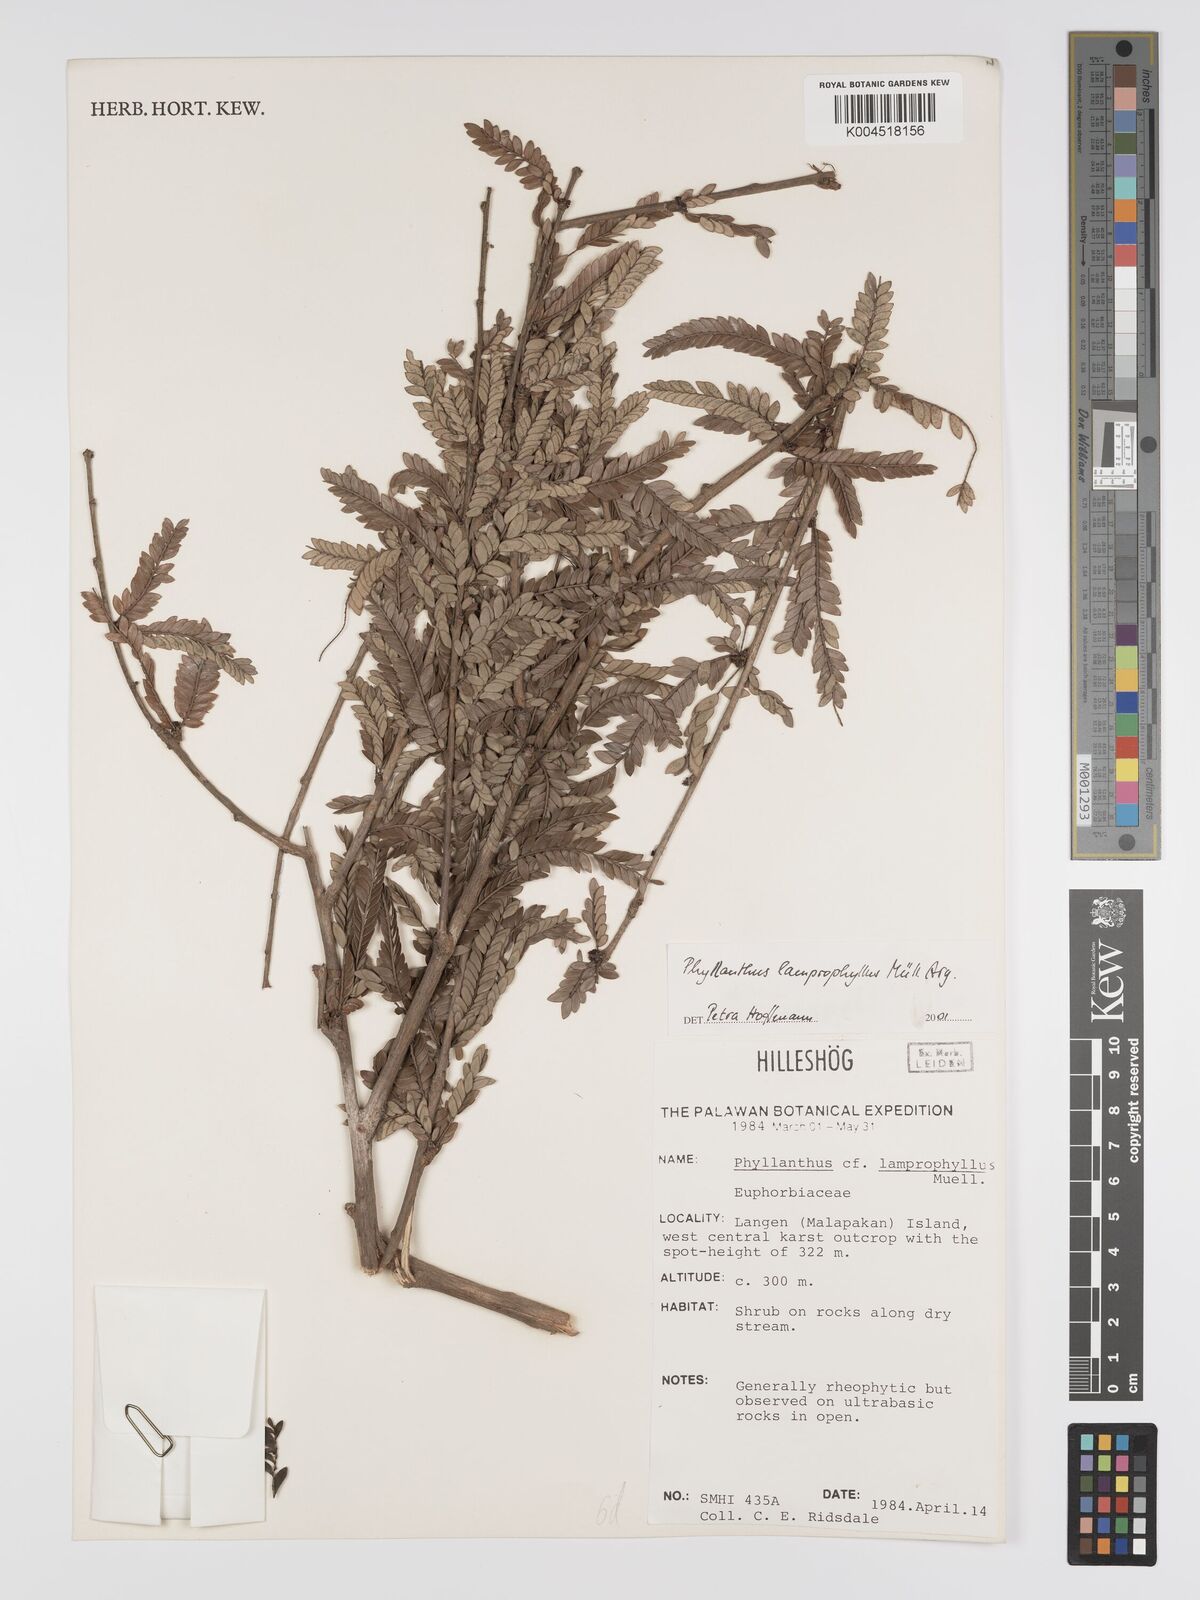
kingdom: Plantae
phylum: Tracheophyta
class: Magnoliopsida
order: Malpighiales
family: Phyllanthaceae
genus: Glochidion
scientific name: Glochidion lamprophyllum
